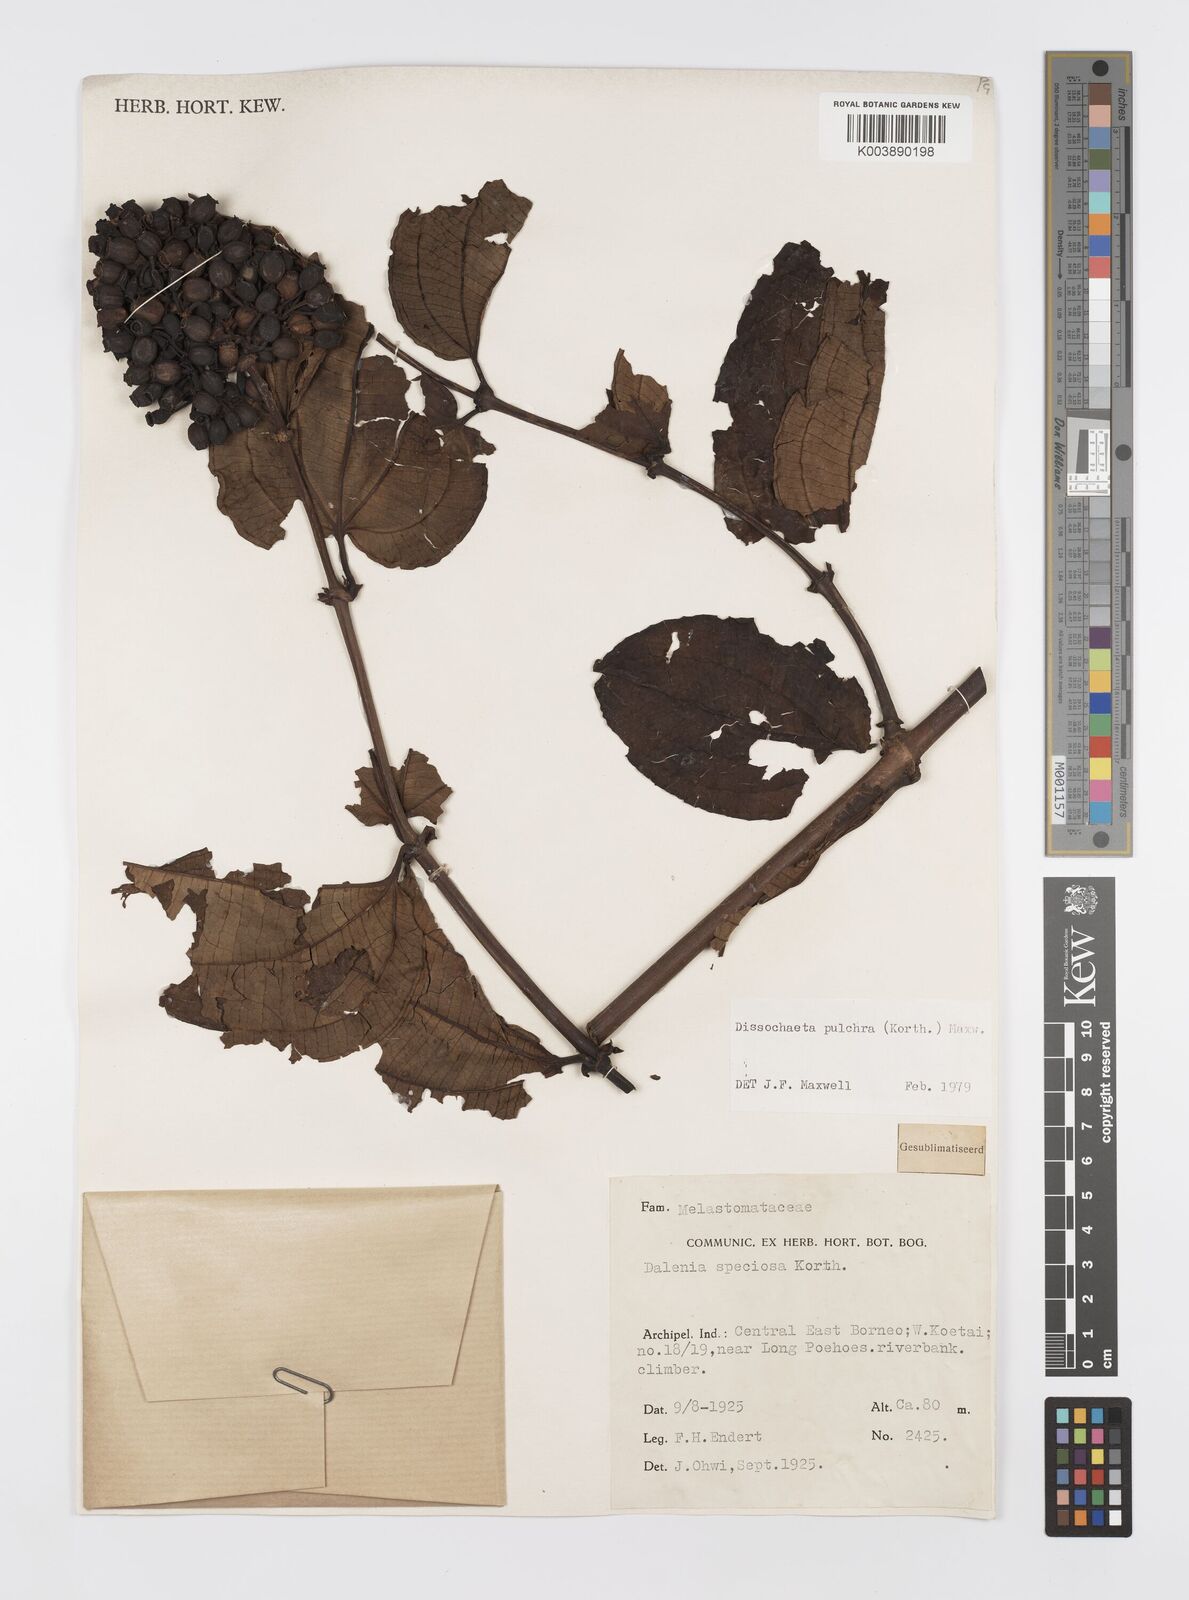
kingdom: Plantae
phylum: Tracheophyta
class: Magnoliopsida
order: Myrtales
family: Melastomataceae
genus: Dalenia
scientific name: Dalenia pulchra
